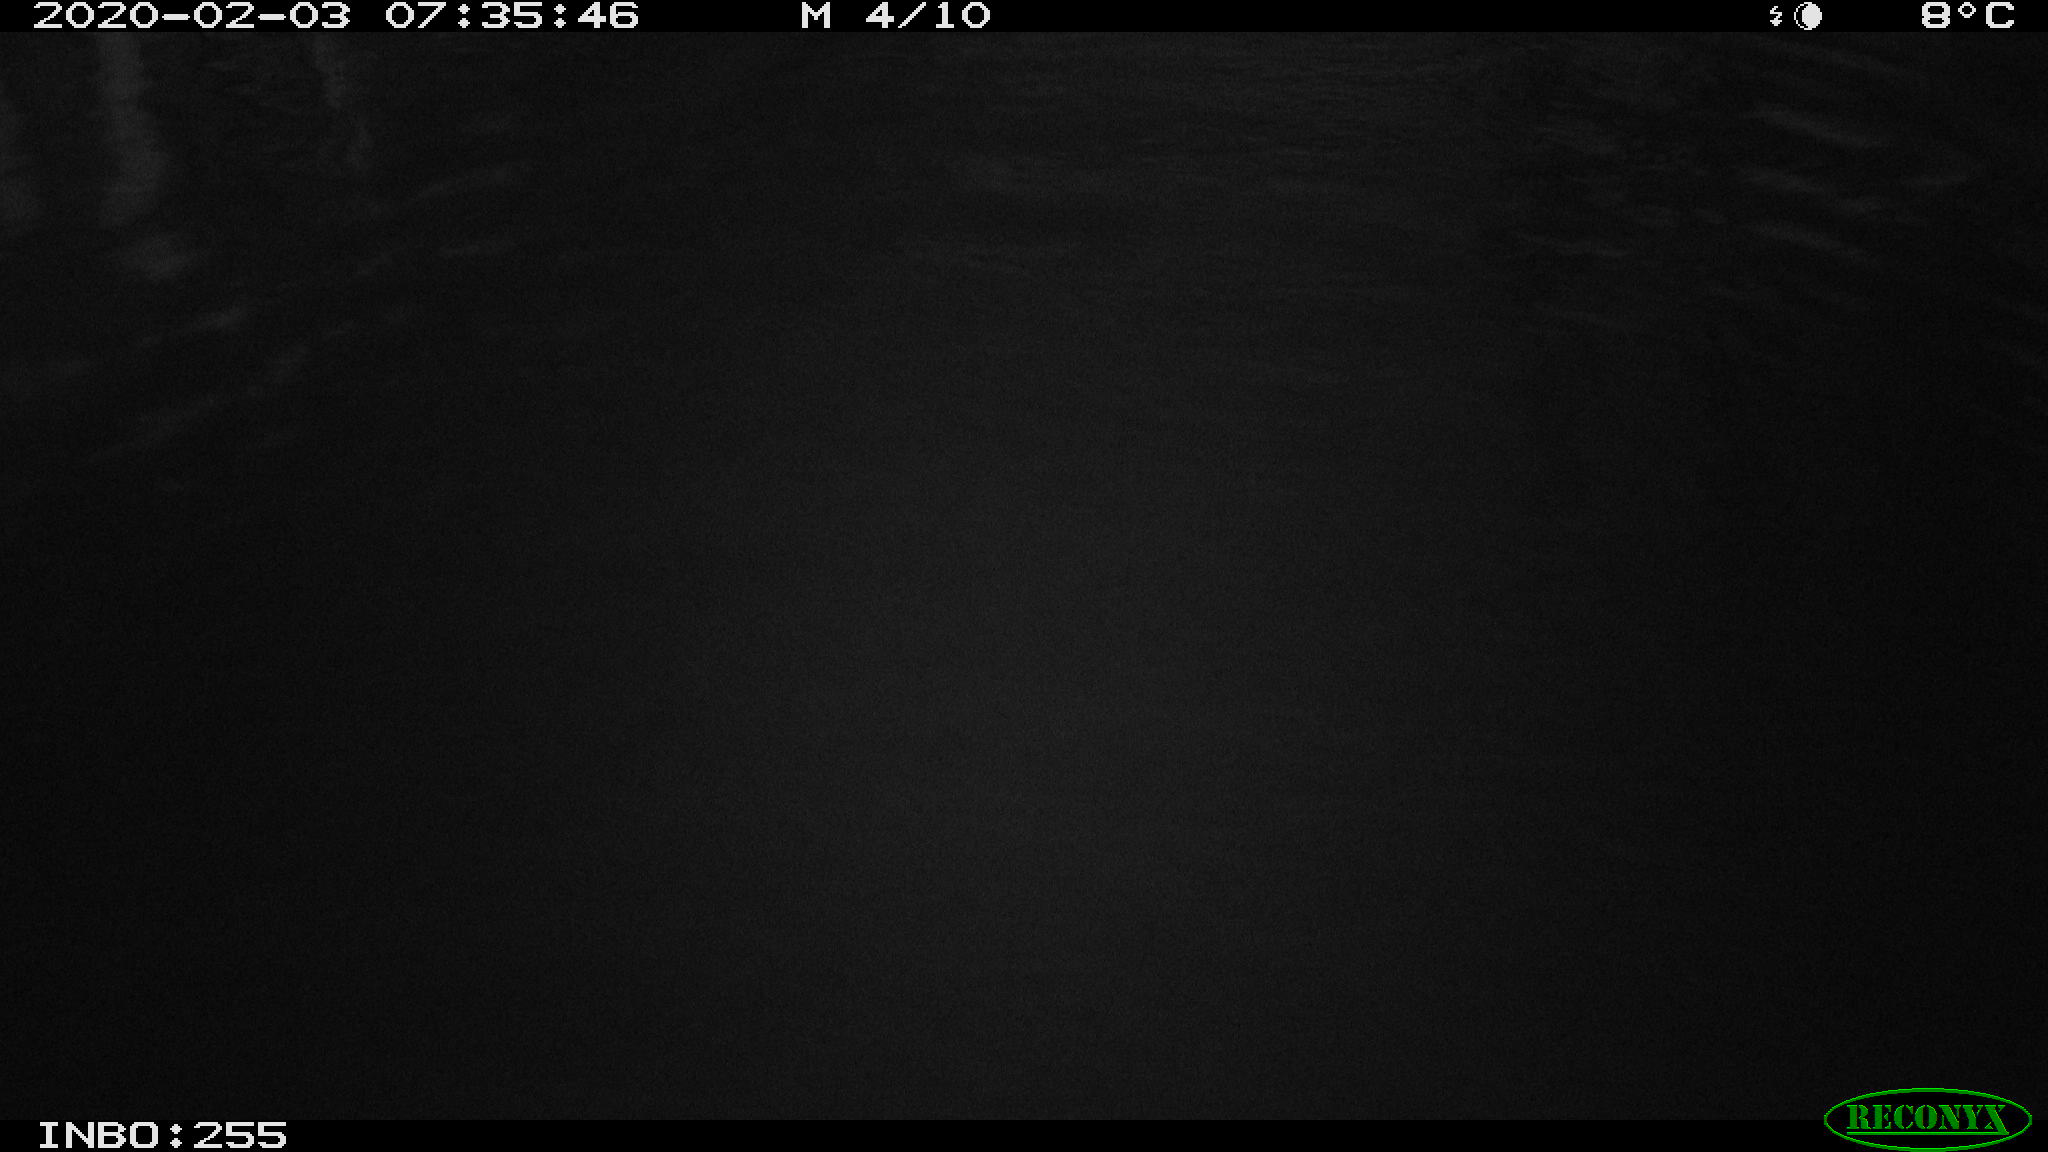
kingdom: Animalia
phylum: Chordata
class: Aves
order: Gruiformes
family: Rallidae
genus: Gallinula
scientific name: Gallinula chloropus
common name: Common moorhen
